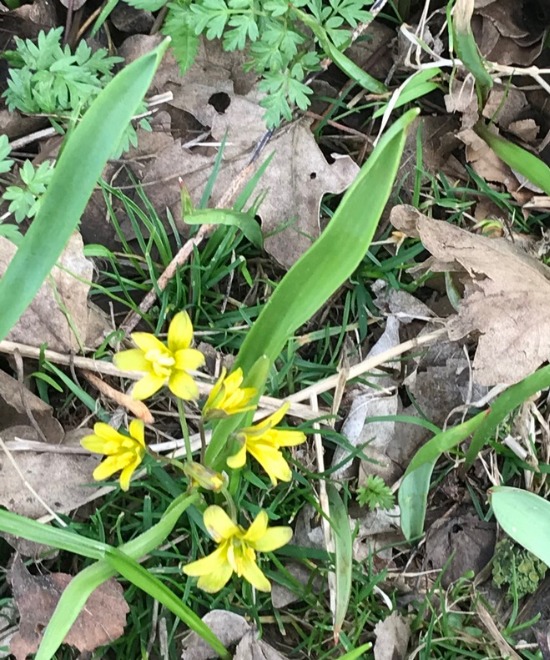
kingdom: Plantae
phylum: Tracheophyta
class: Liliopsida
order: Liliales
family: Liliaceae
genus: Gagea
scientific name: Gagea lutea
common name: Almindelig guldstjerne
